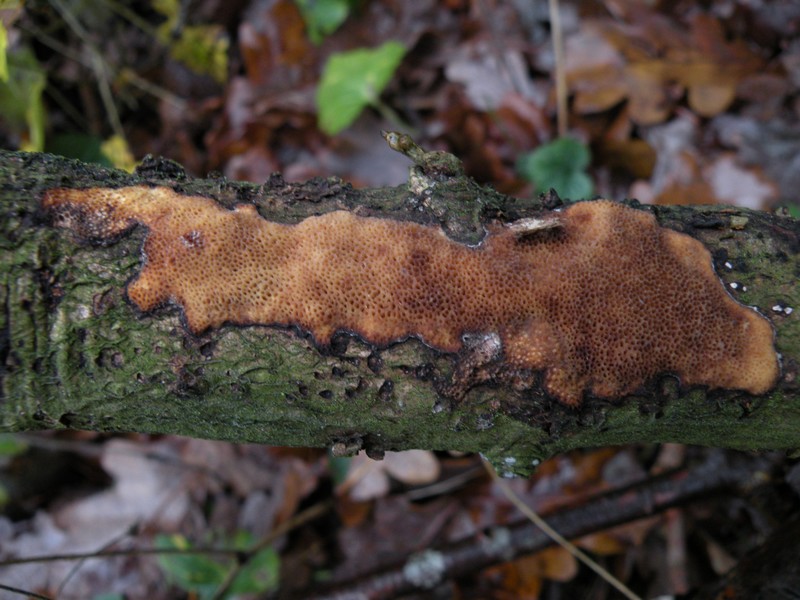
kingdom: Fungi
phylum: Basidiomycota
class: Agaricomycetes
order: Polyporales
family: Polyporaceae
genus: Szczepkamyces
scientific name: Szczepkamyces campestris
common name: hasselporesvamp
